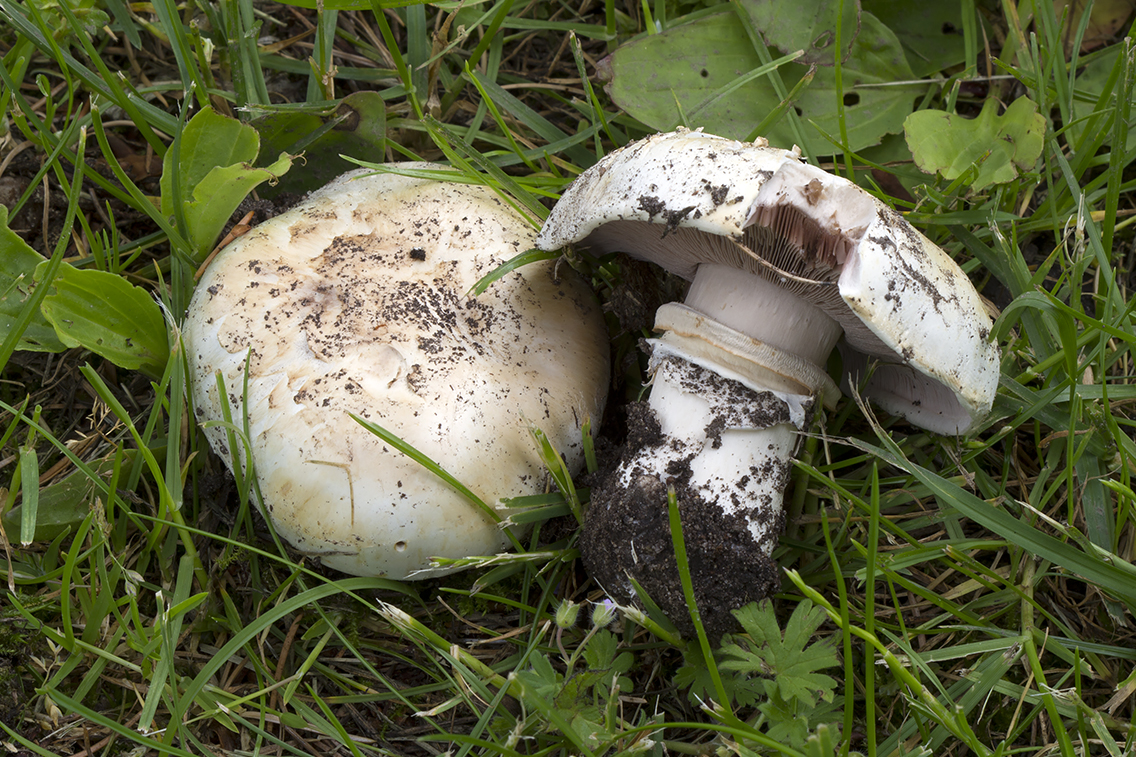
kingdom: Fungi
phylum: Basidiomycota
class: Agaricomycetes
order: Agaricales
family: Agaricaceae
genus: Agaricus
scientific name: Agaricus bitorquis
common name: vej-champignon
